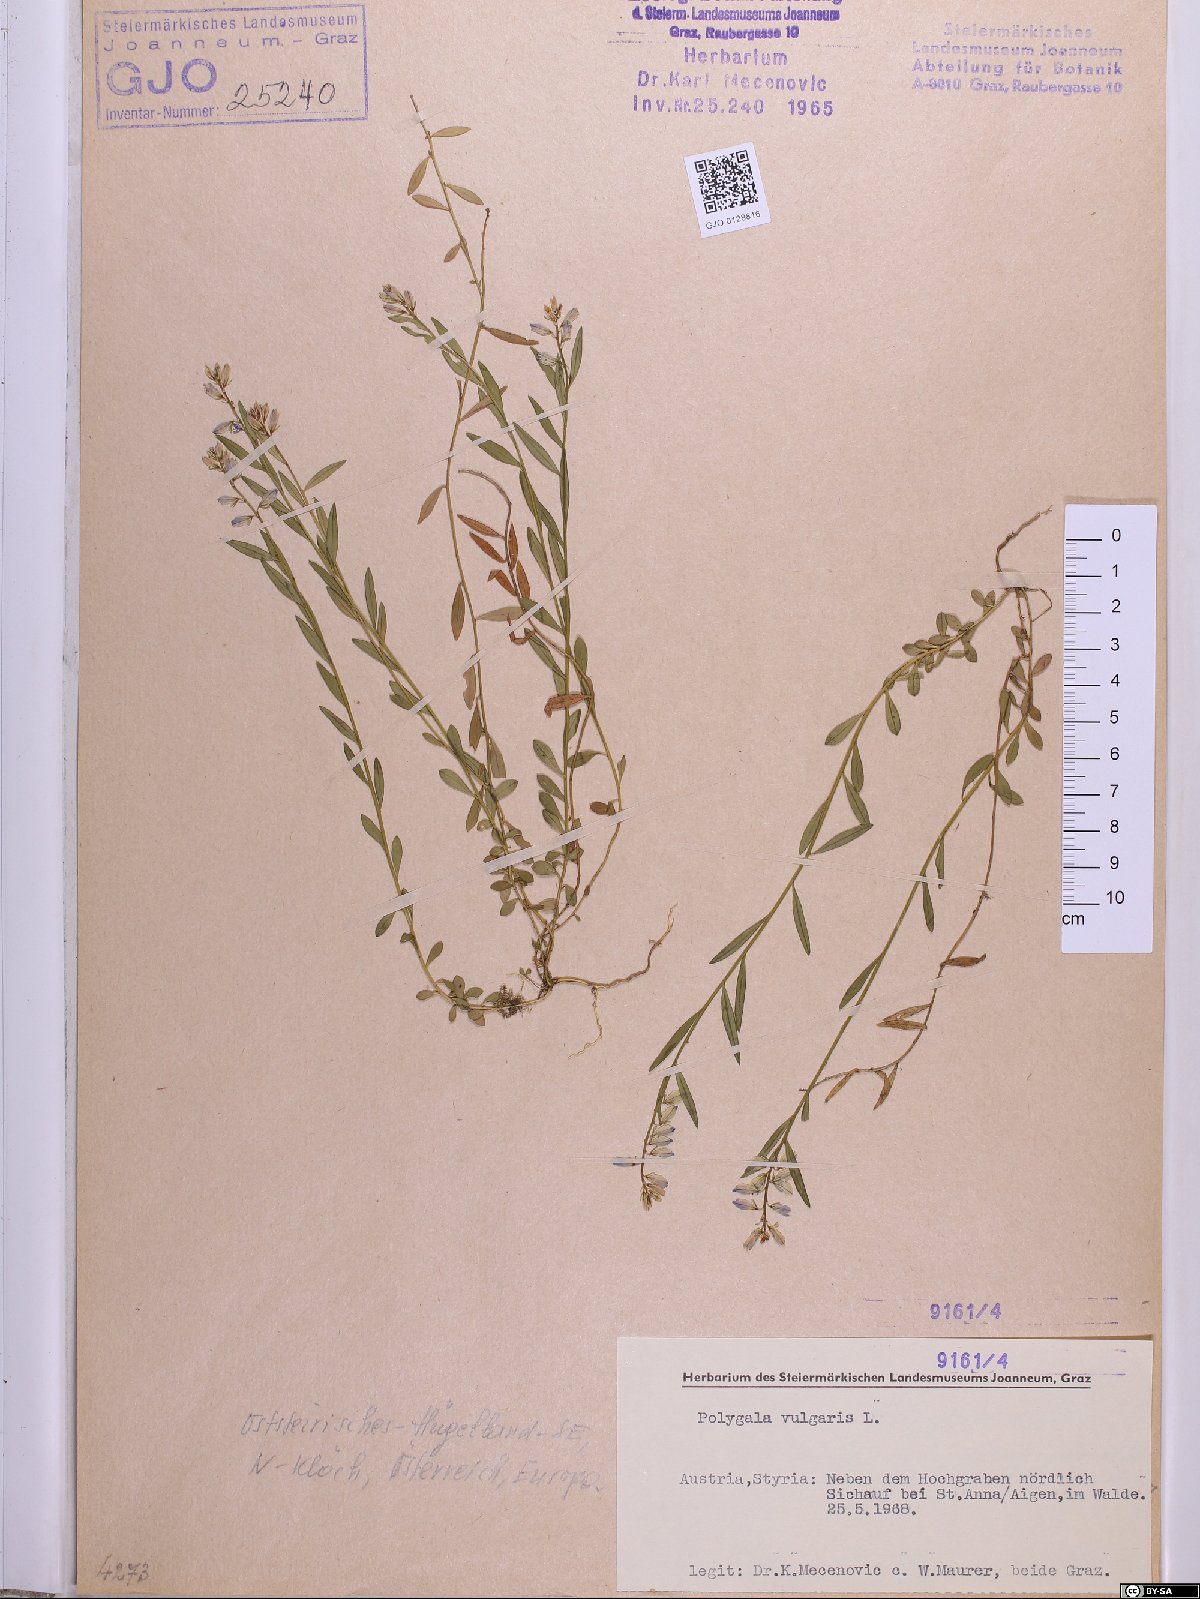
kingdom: Plantae
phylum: Tracheophyta
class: Magnoliopsida
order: Fabales
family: Polygalaceae
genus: Polygala
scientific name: Polygala vulgaris
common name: Common milkwort
